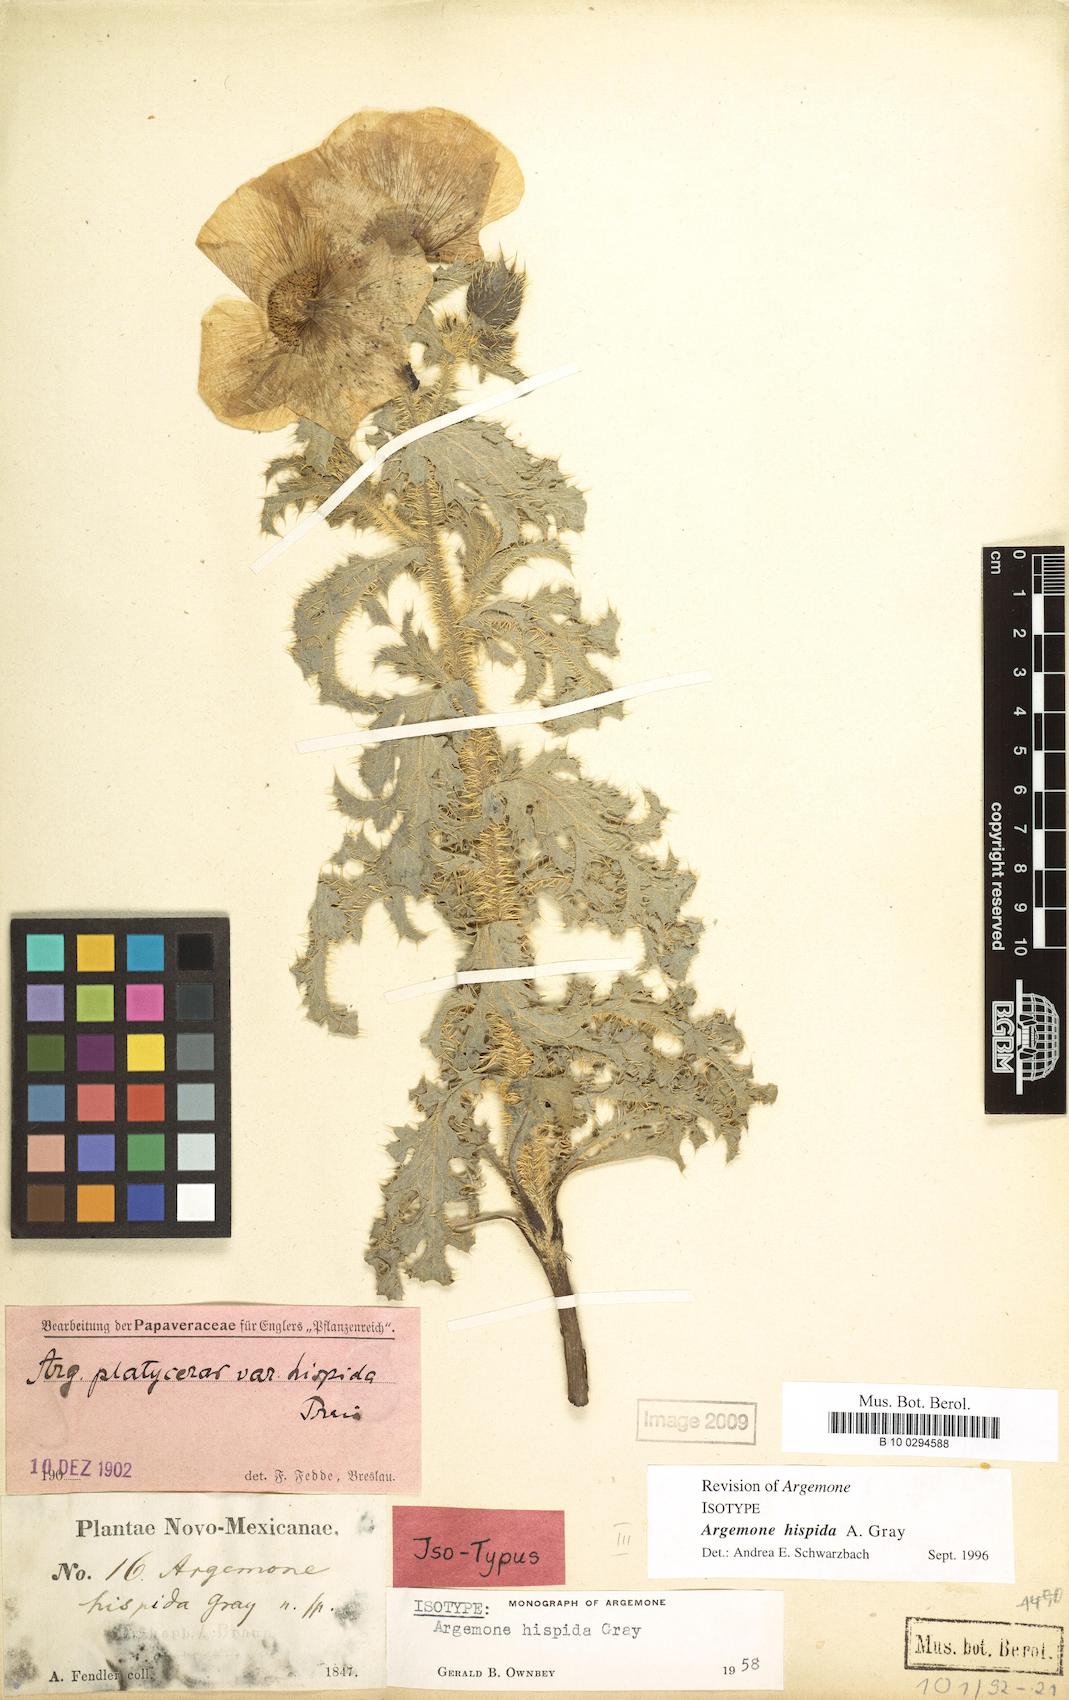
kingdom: Plantae
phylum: Tracheophyta
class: Magnoliopsida
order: Ranunculales
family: Papaveraceae
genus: Argemone
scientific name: Argemone hispida
